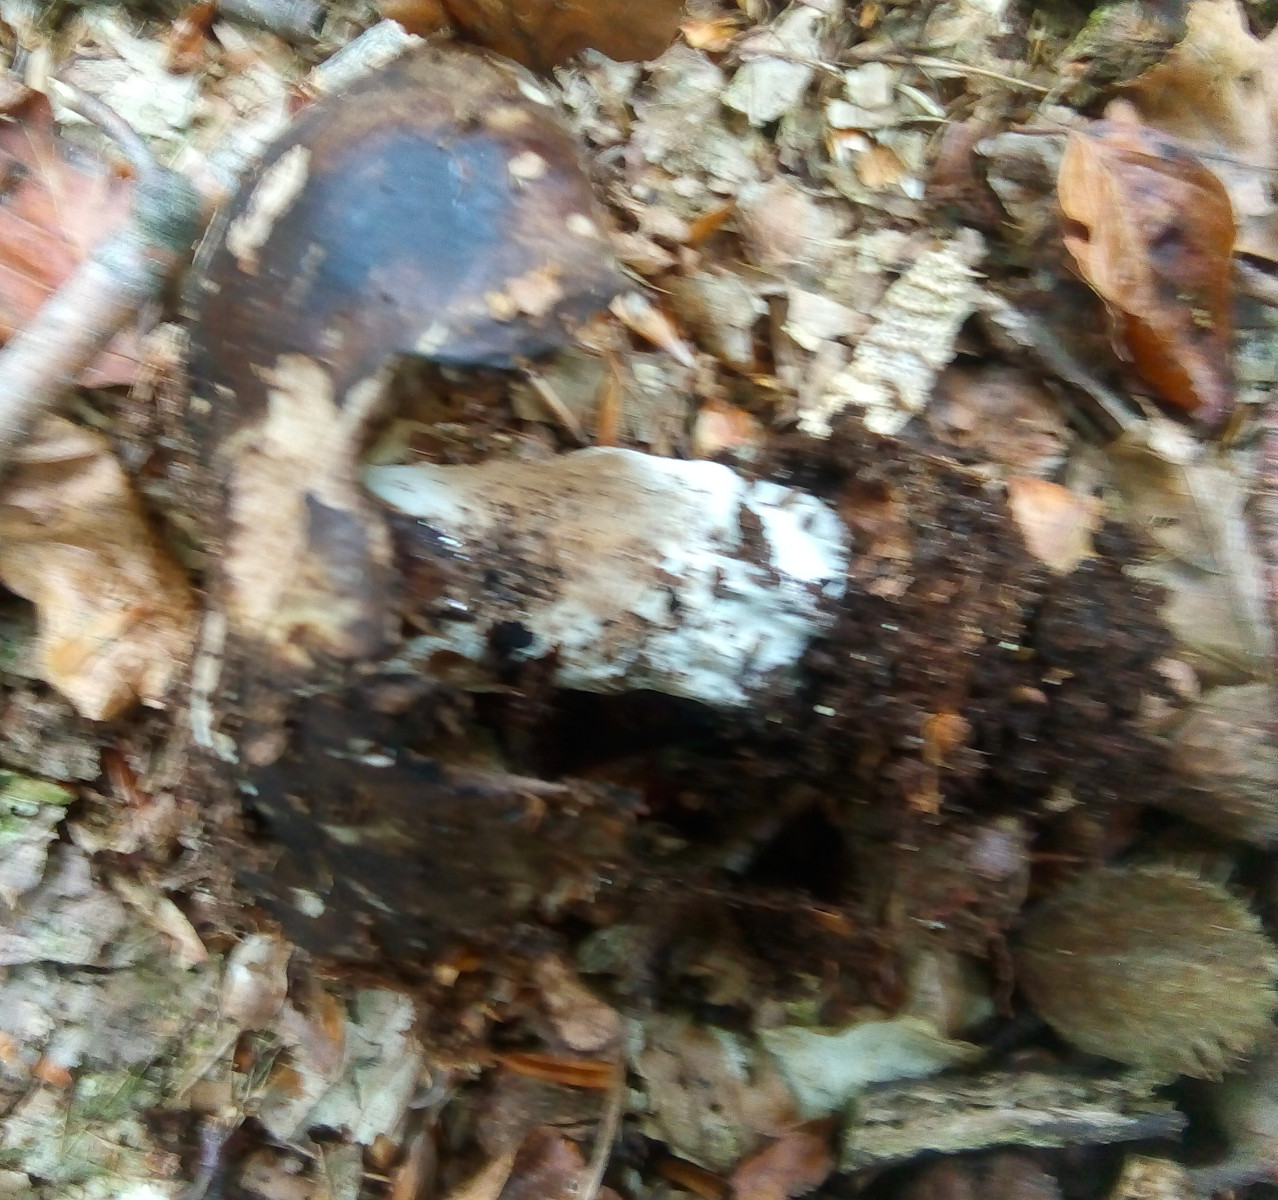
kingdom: Fungi
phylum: Basidiomycota
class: Agaricomycetes
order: Russulales
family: Russulaceae
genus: Russula
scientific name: Russula adusta
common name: sværtende skørhat
